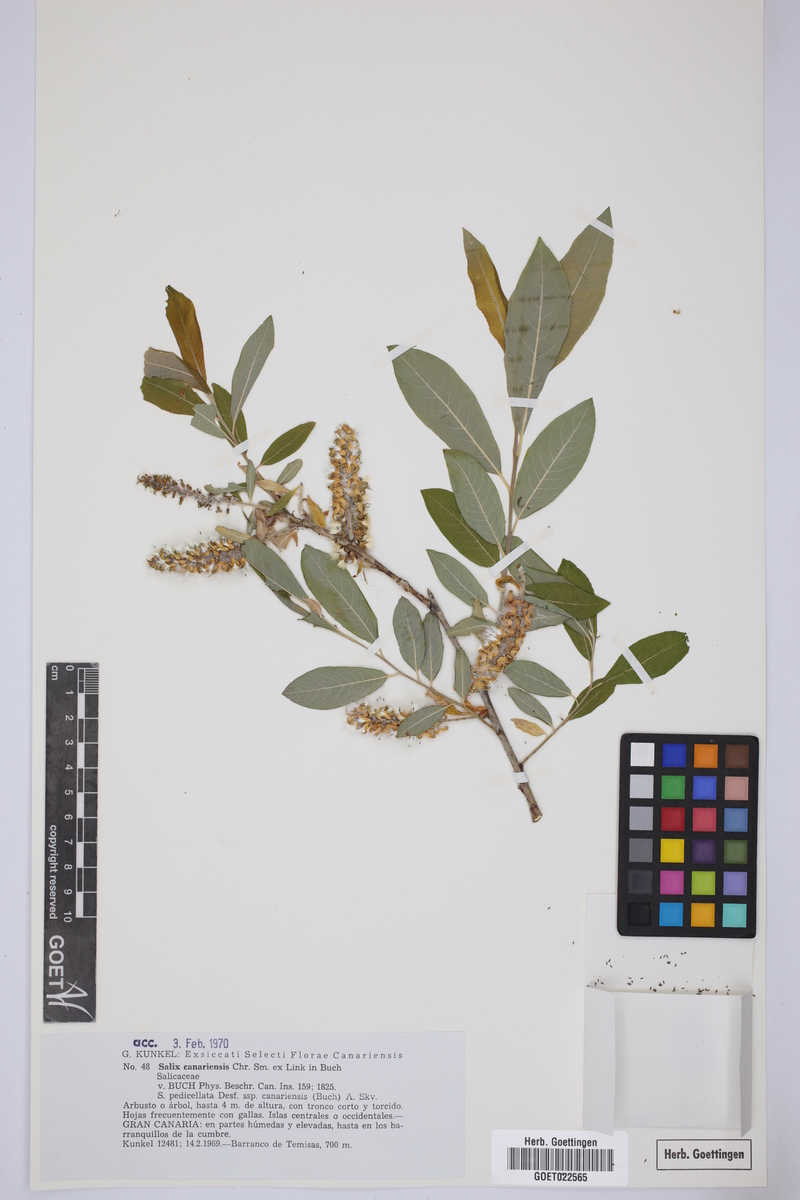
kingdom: Plantae
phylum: Tracheophyta
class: Magnoliopsida
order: Malpighiales
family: Salicaceae
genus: Salix
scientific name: Salix canariensis
